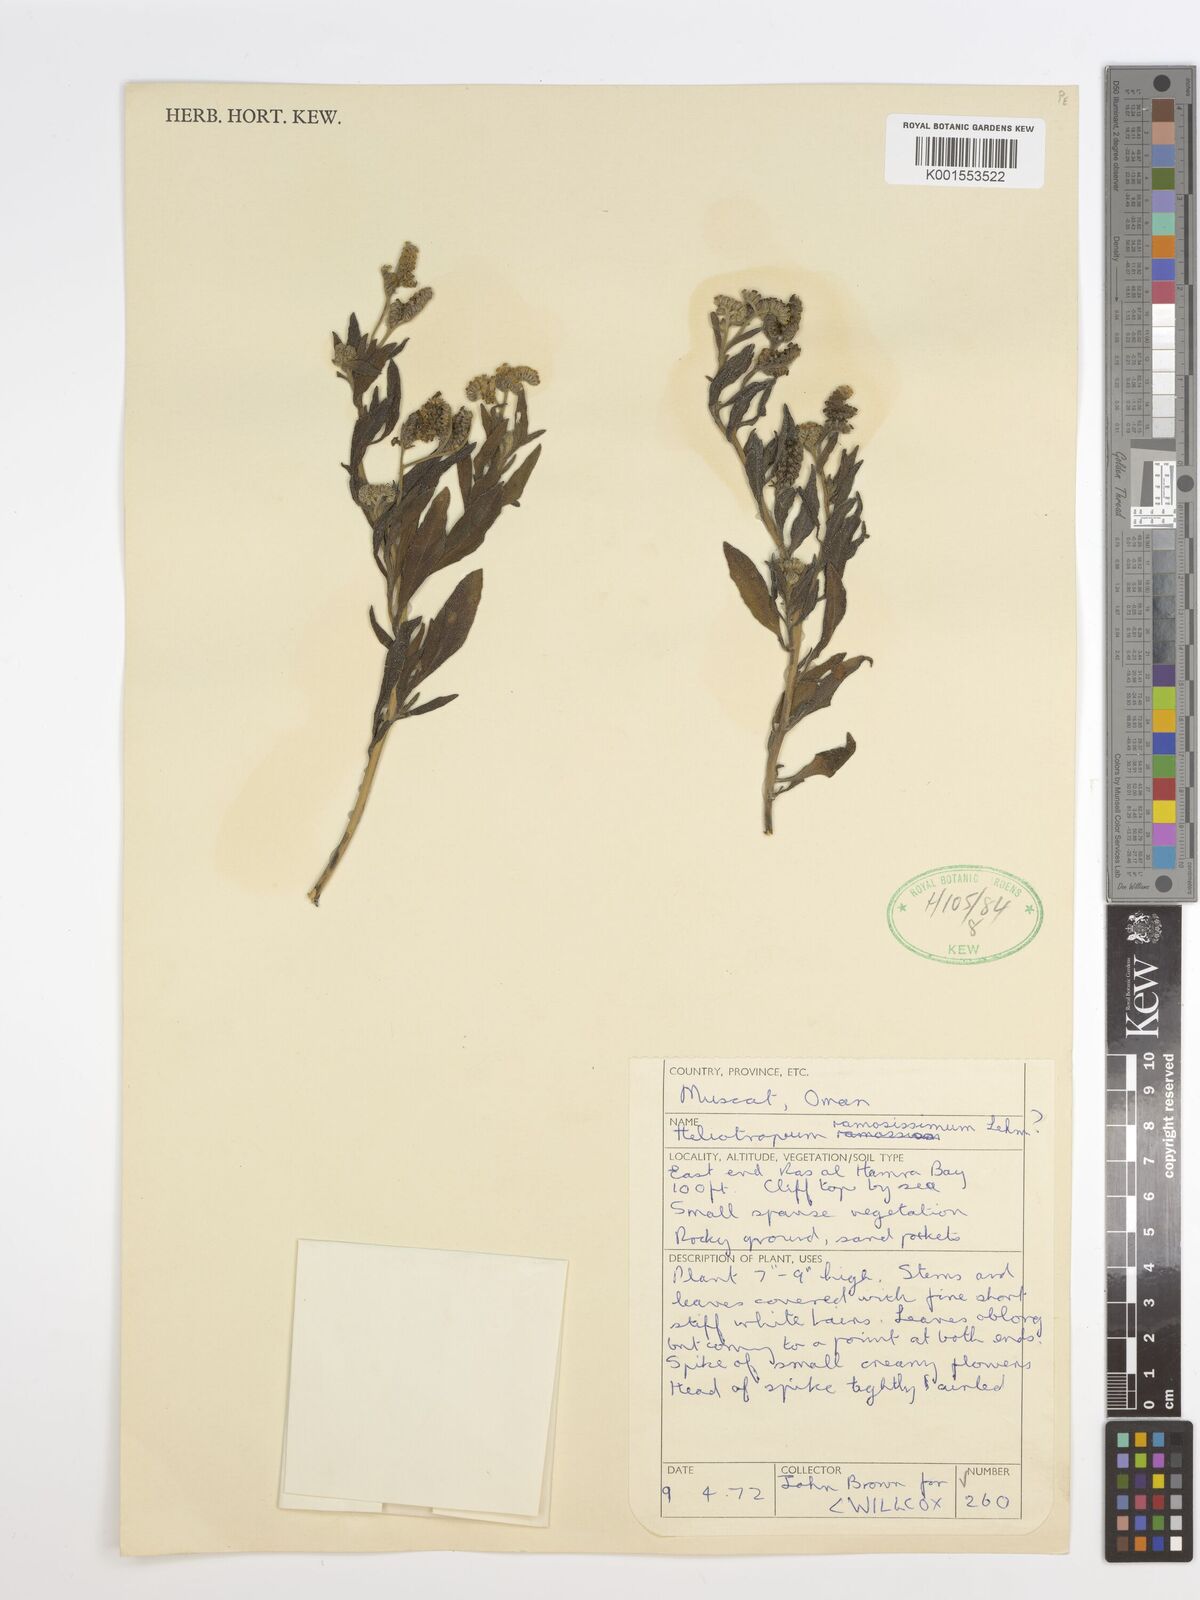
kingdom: Plantae
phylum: Tracheophyta
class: Magnoliopsida
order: Boraginales
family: Heliotropiaceae
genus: Heliotropium
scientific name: Heliotropium ramosissimum
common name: Wavy heliotrope
